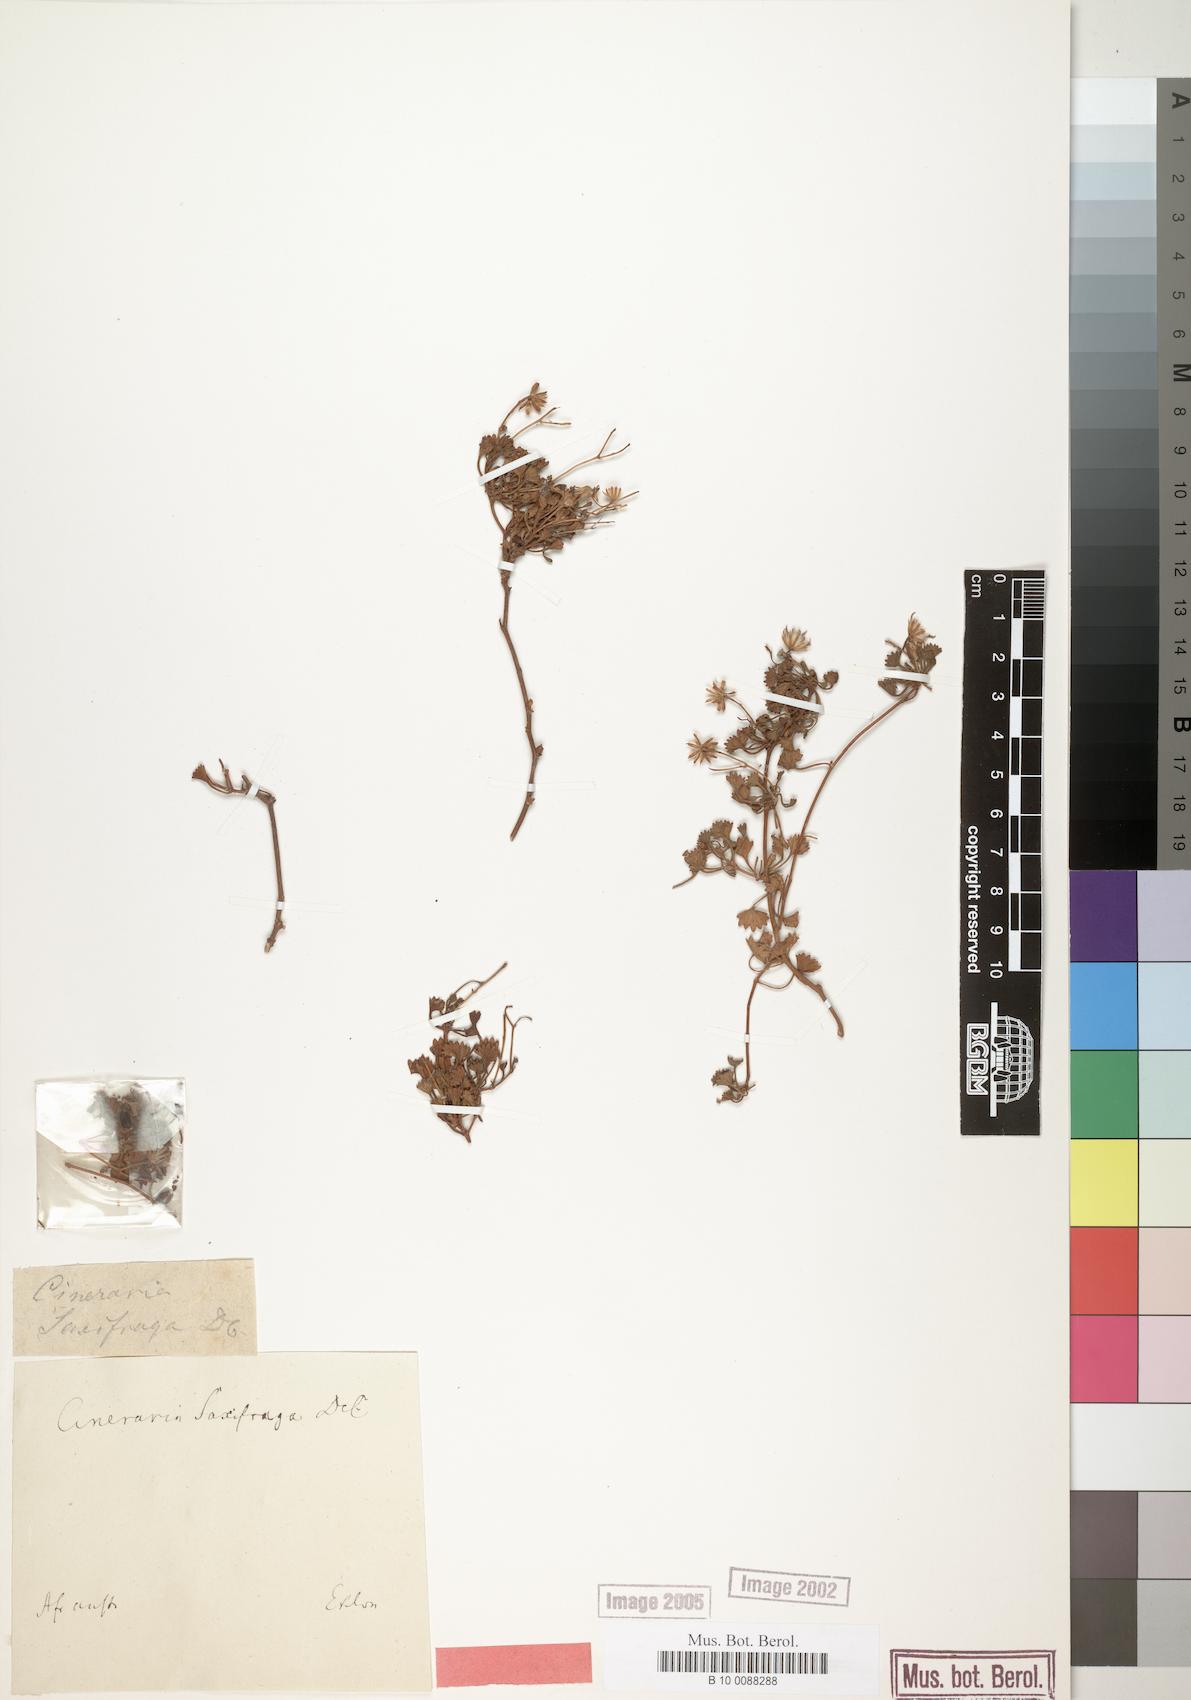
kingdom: Plantae
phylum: Tracheophyta
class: Magnoliopsida
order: Asterales
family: Asteraceae
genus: Cineraria
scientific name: Cineraria saxifraga
